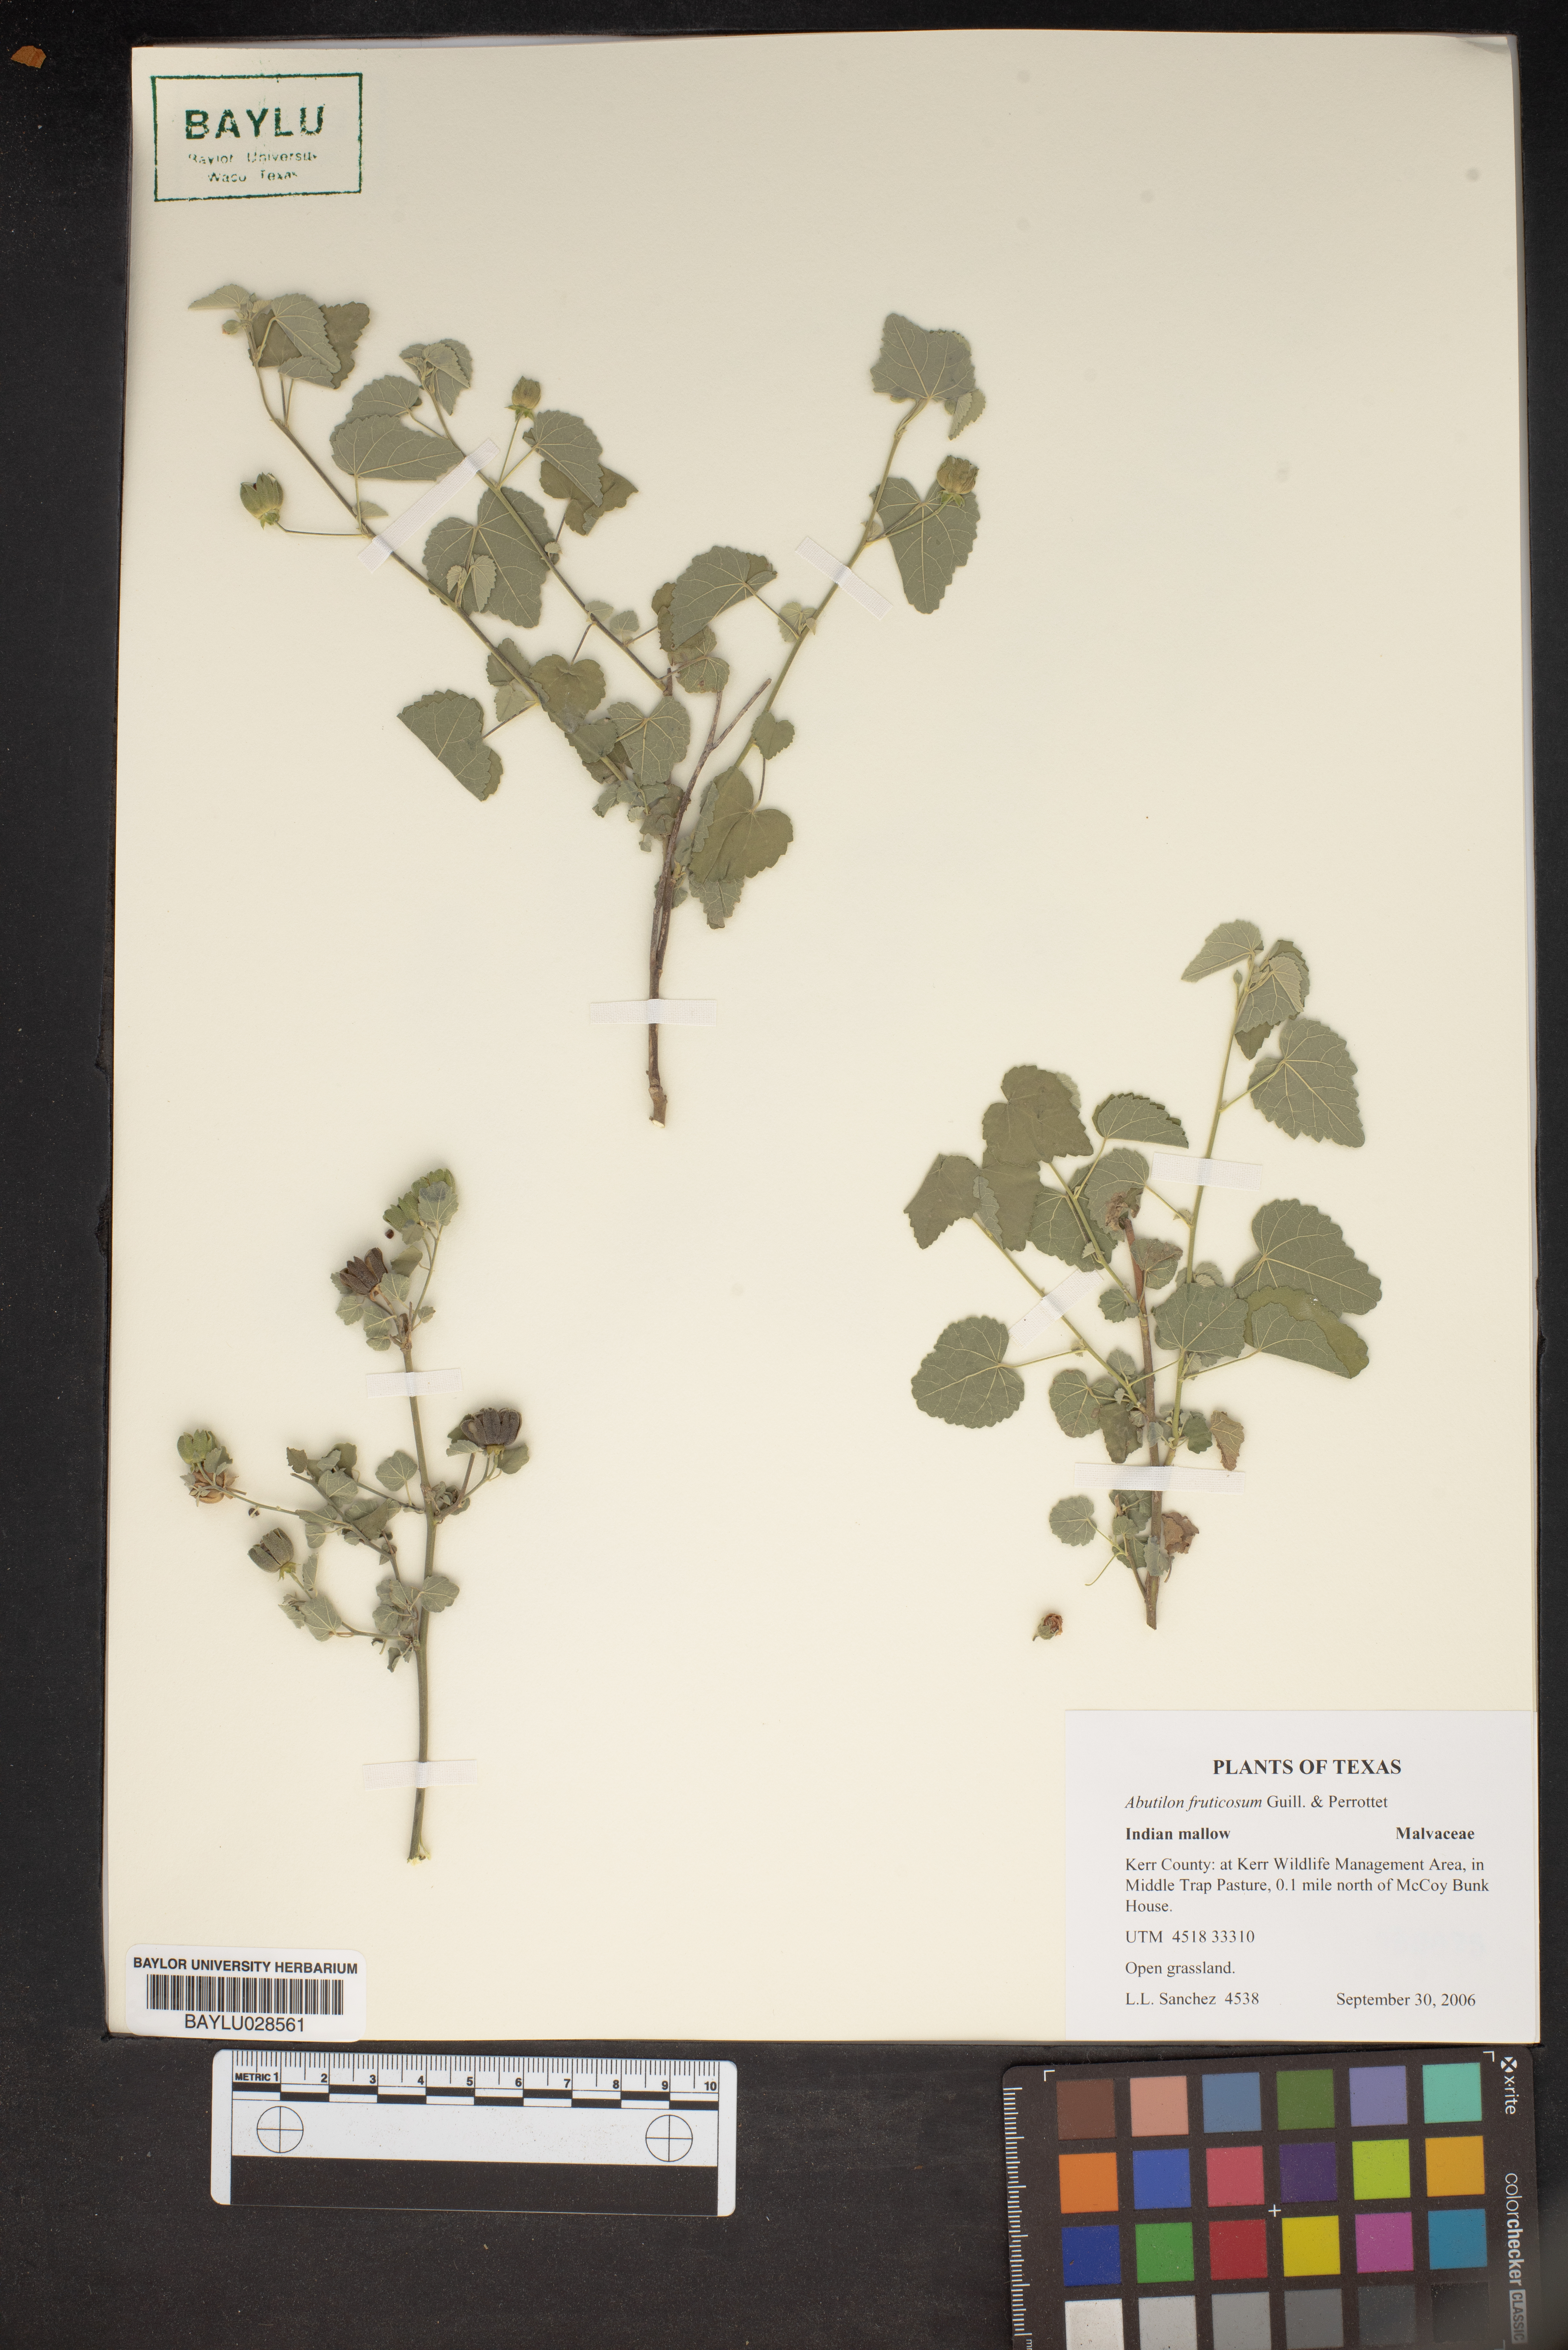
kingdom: Plantae
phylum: Tracheophyta
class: Magnoliopsida
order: Malvales
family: Malvaceae
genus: Abutilon
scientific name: Abutilon fruticosum
